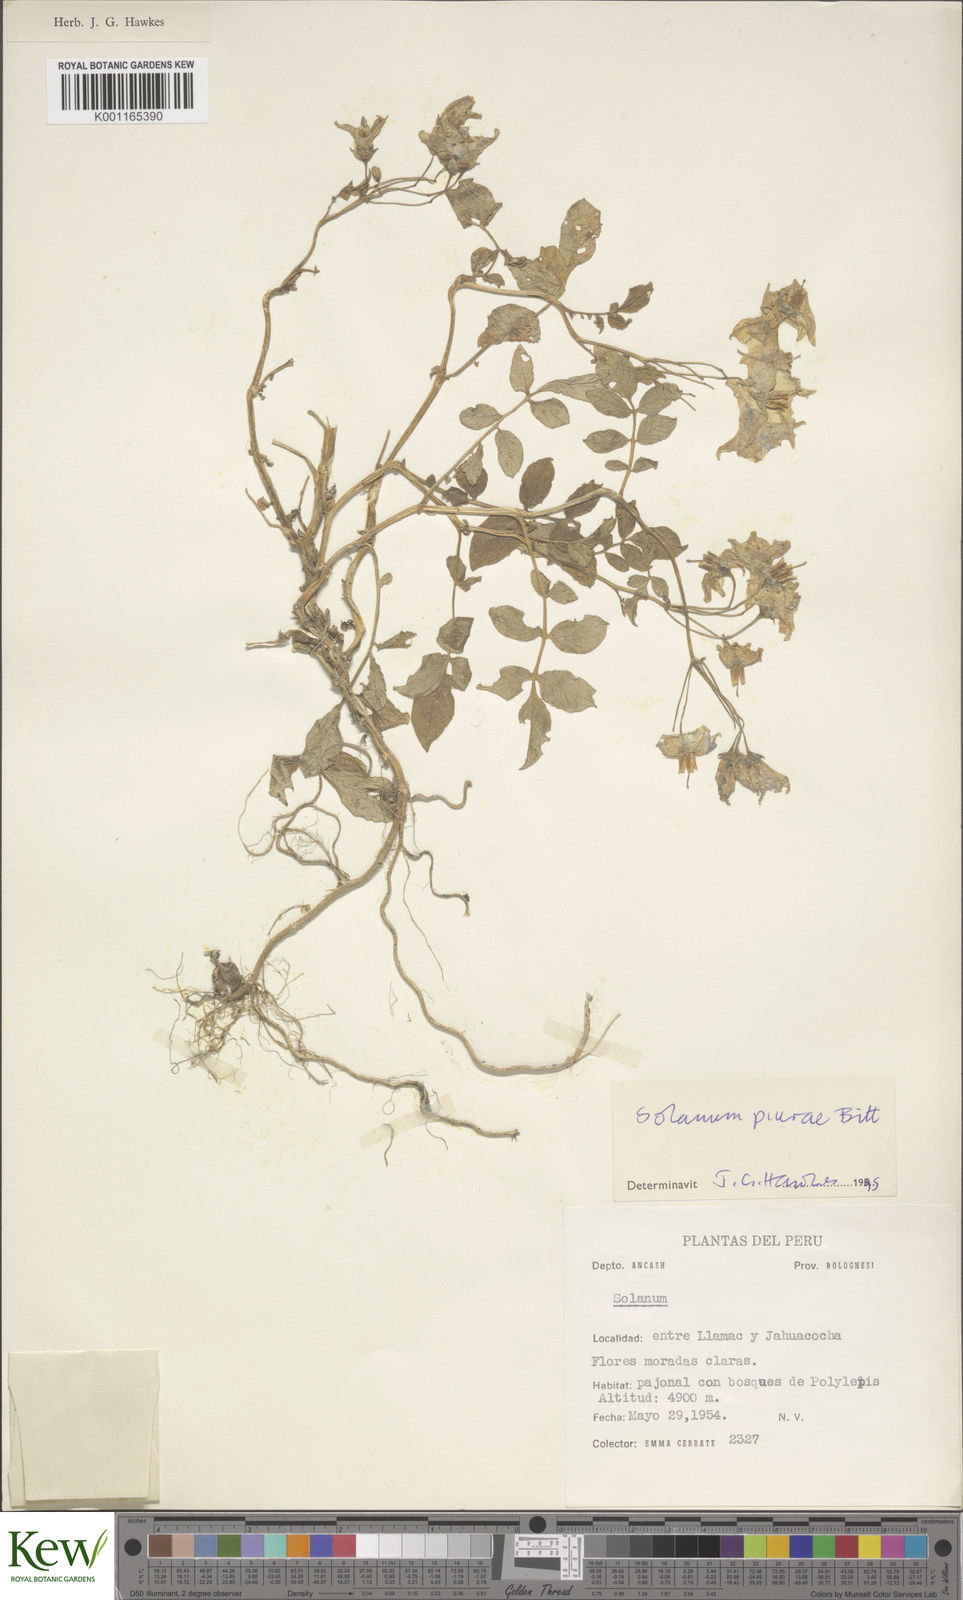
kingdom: Plantae
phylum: Tracheophyta
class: Magnoliopsida
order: Solanales
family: Solanaceae
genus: Solanum
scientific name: Solanum piurae
